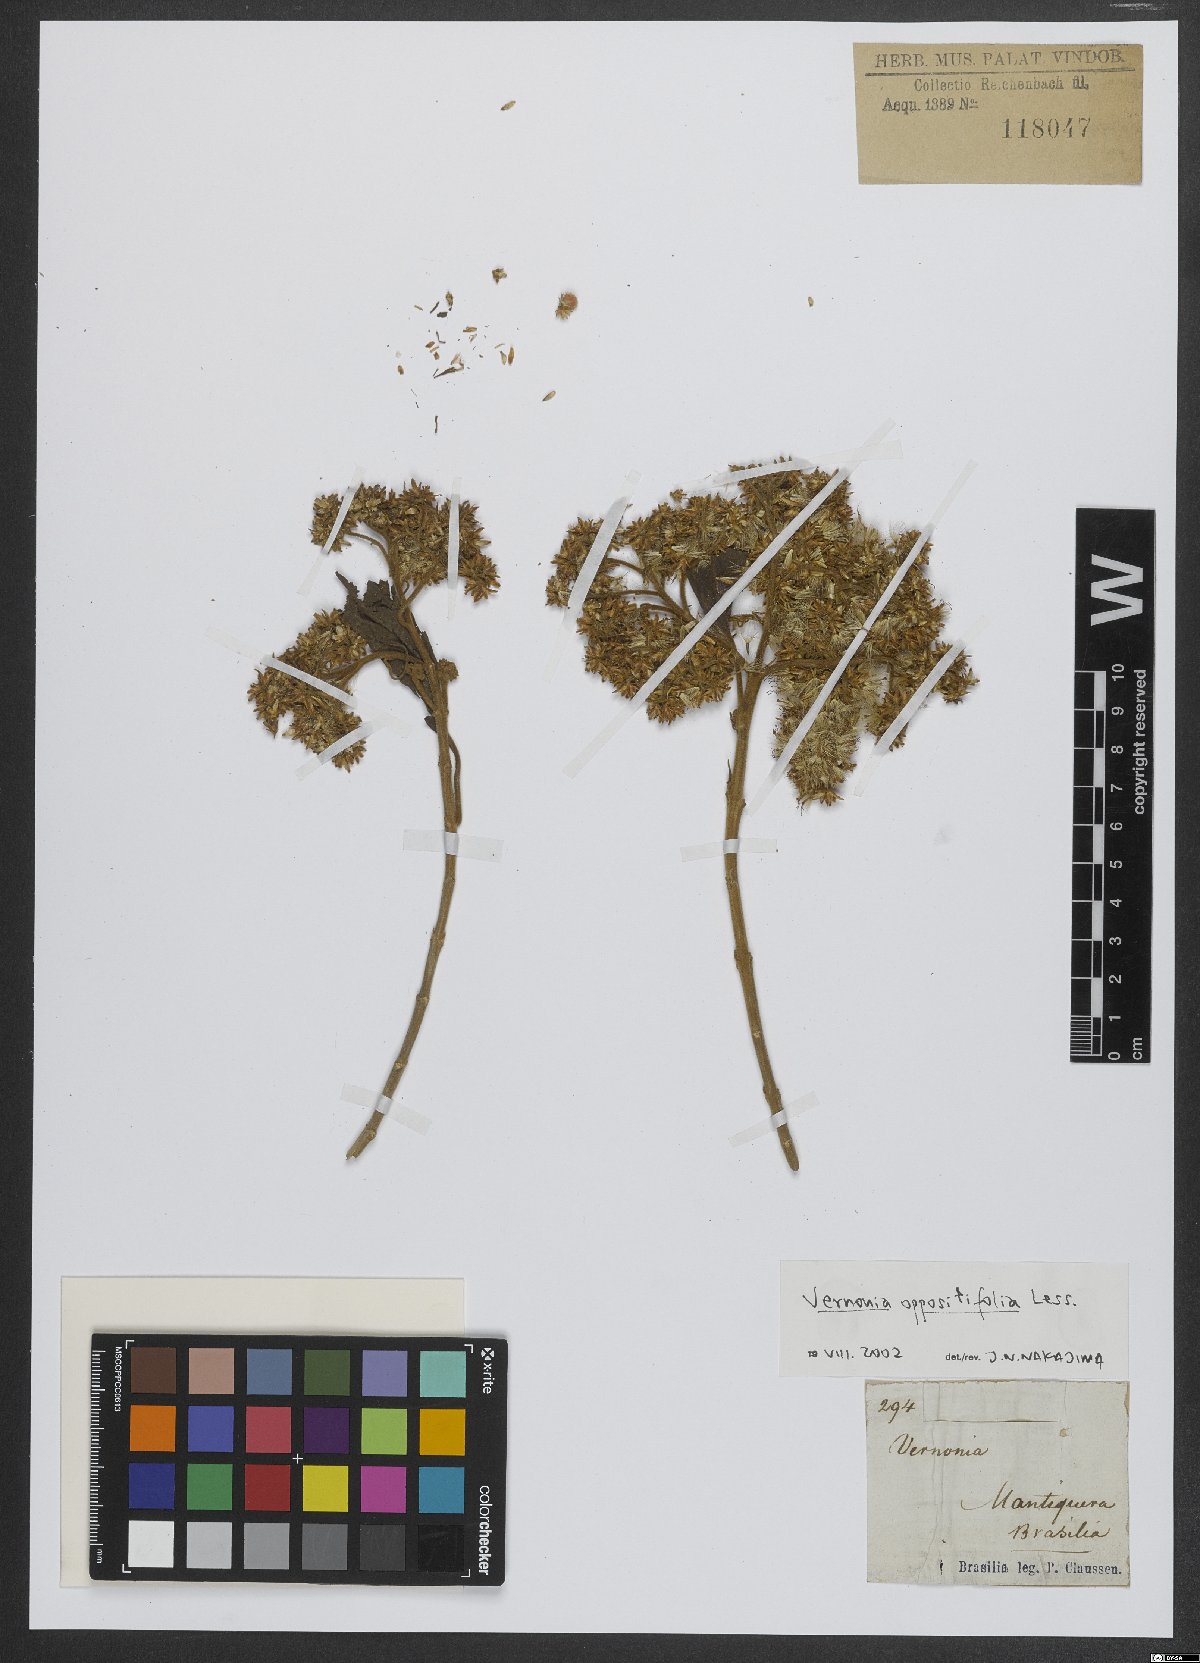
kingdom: Plantae
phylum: Tracheophyta
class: Magnoliopsida
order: Asterales
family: Asteraceae
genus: Critoniopsis
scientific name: Critoniopsis stellata
